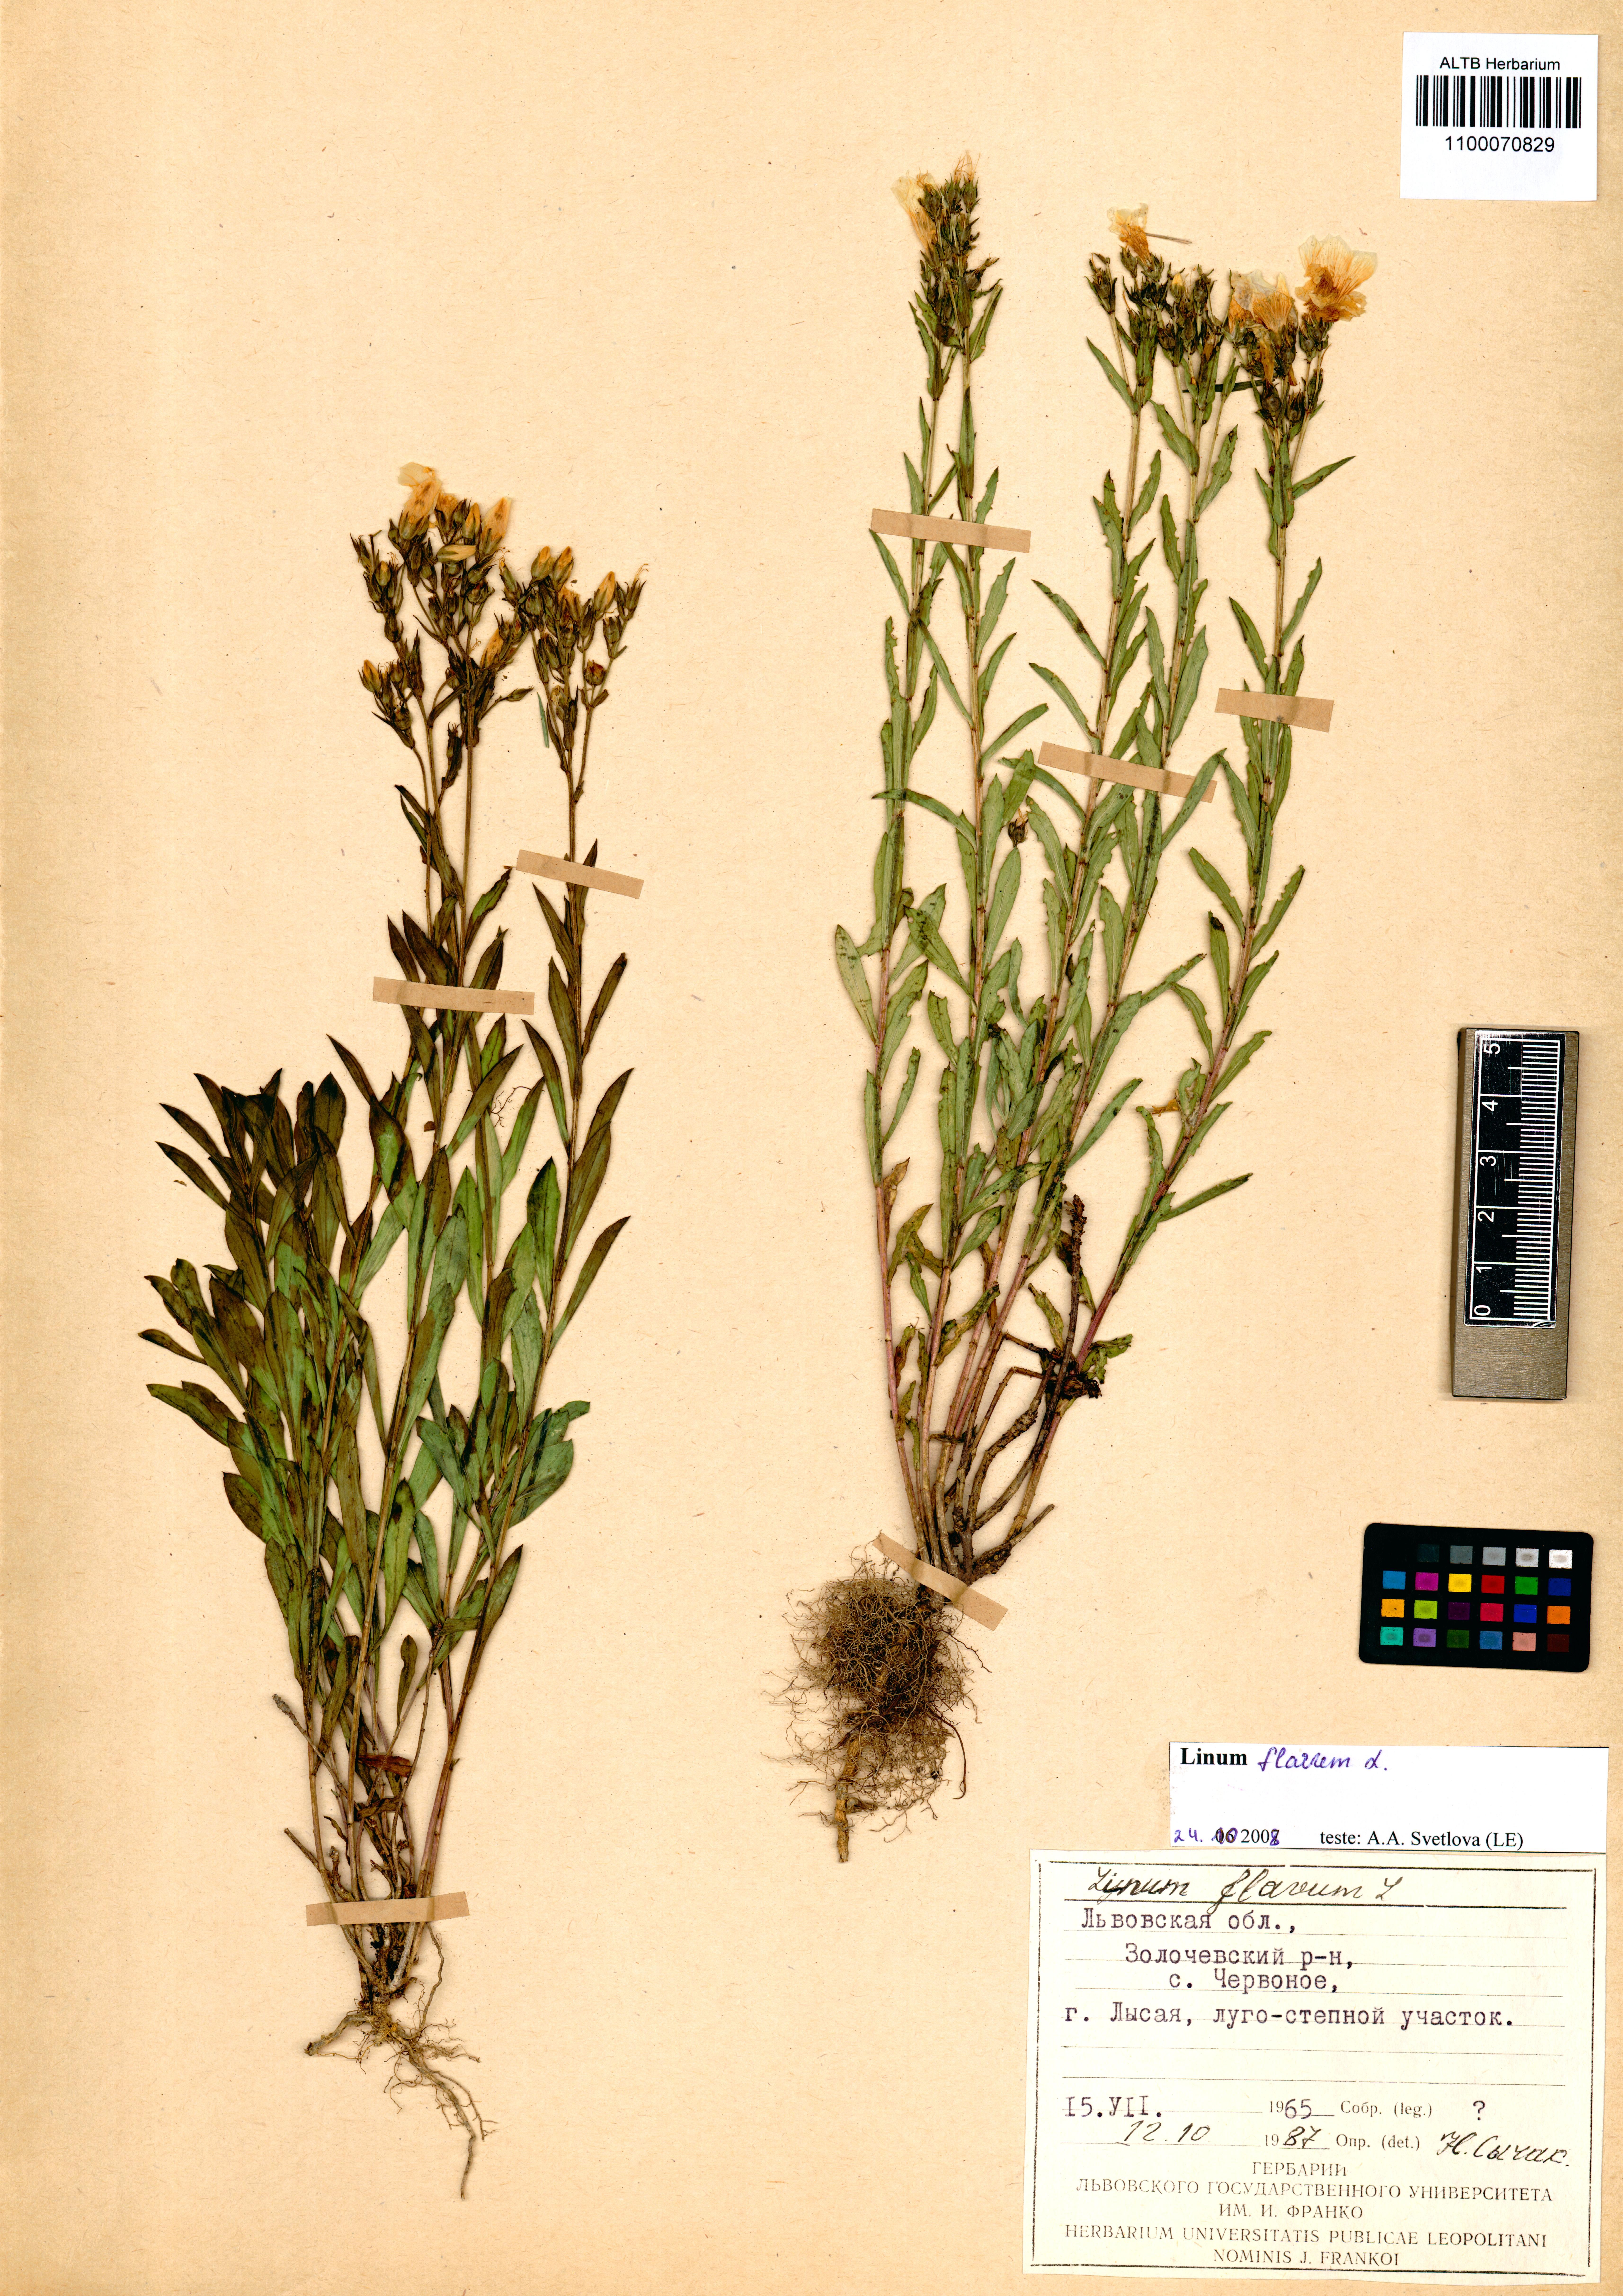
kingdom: Plantae
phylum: Tracheophyta
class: Magnoliopsida
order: Malpighiales
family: Linaceae
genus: Linum
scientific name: Linum flavum
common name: Yellow flax
